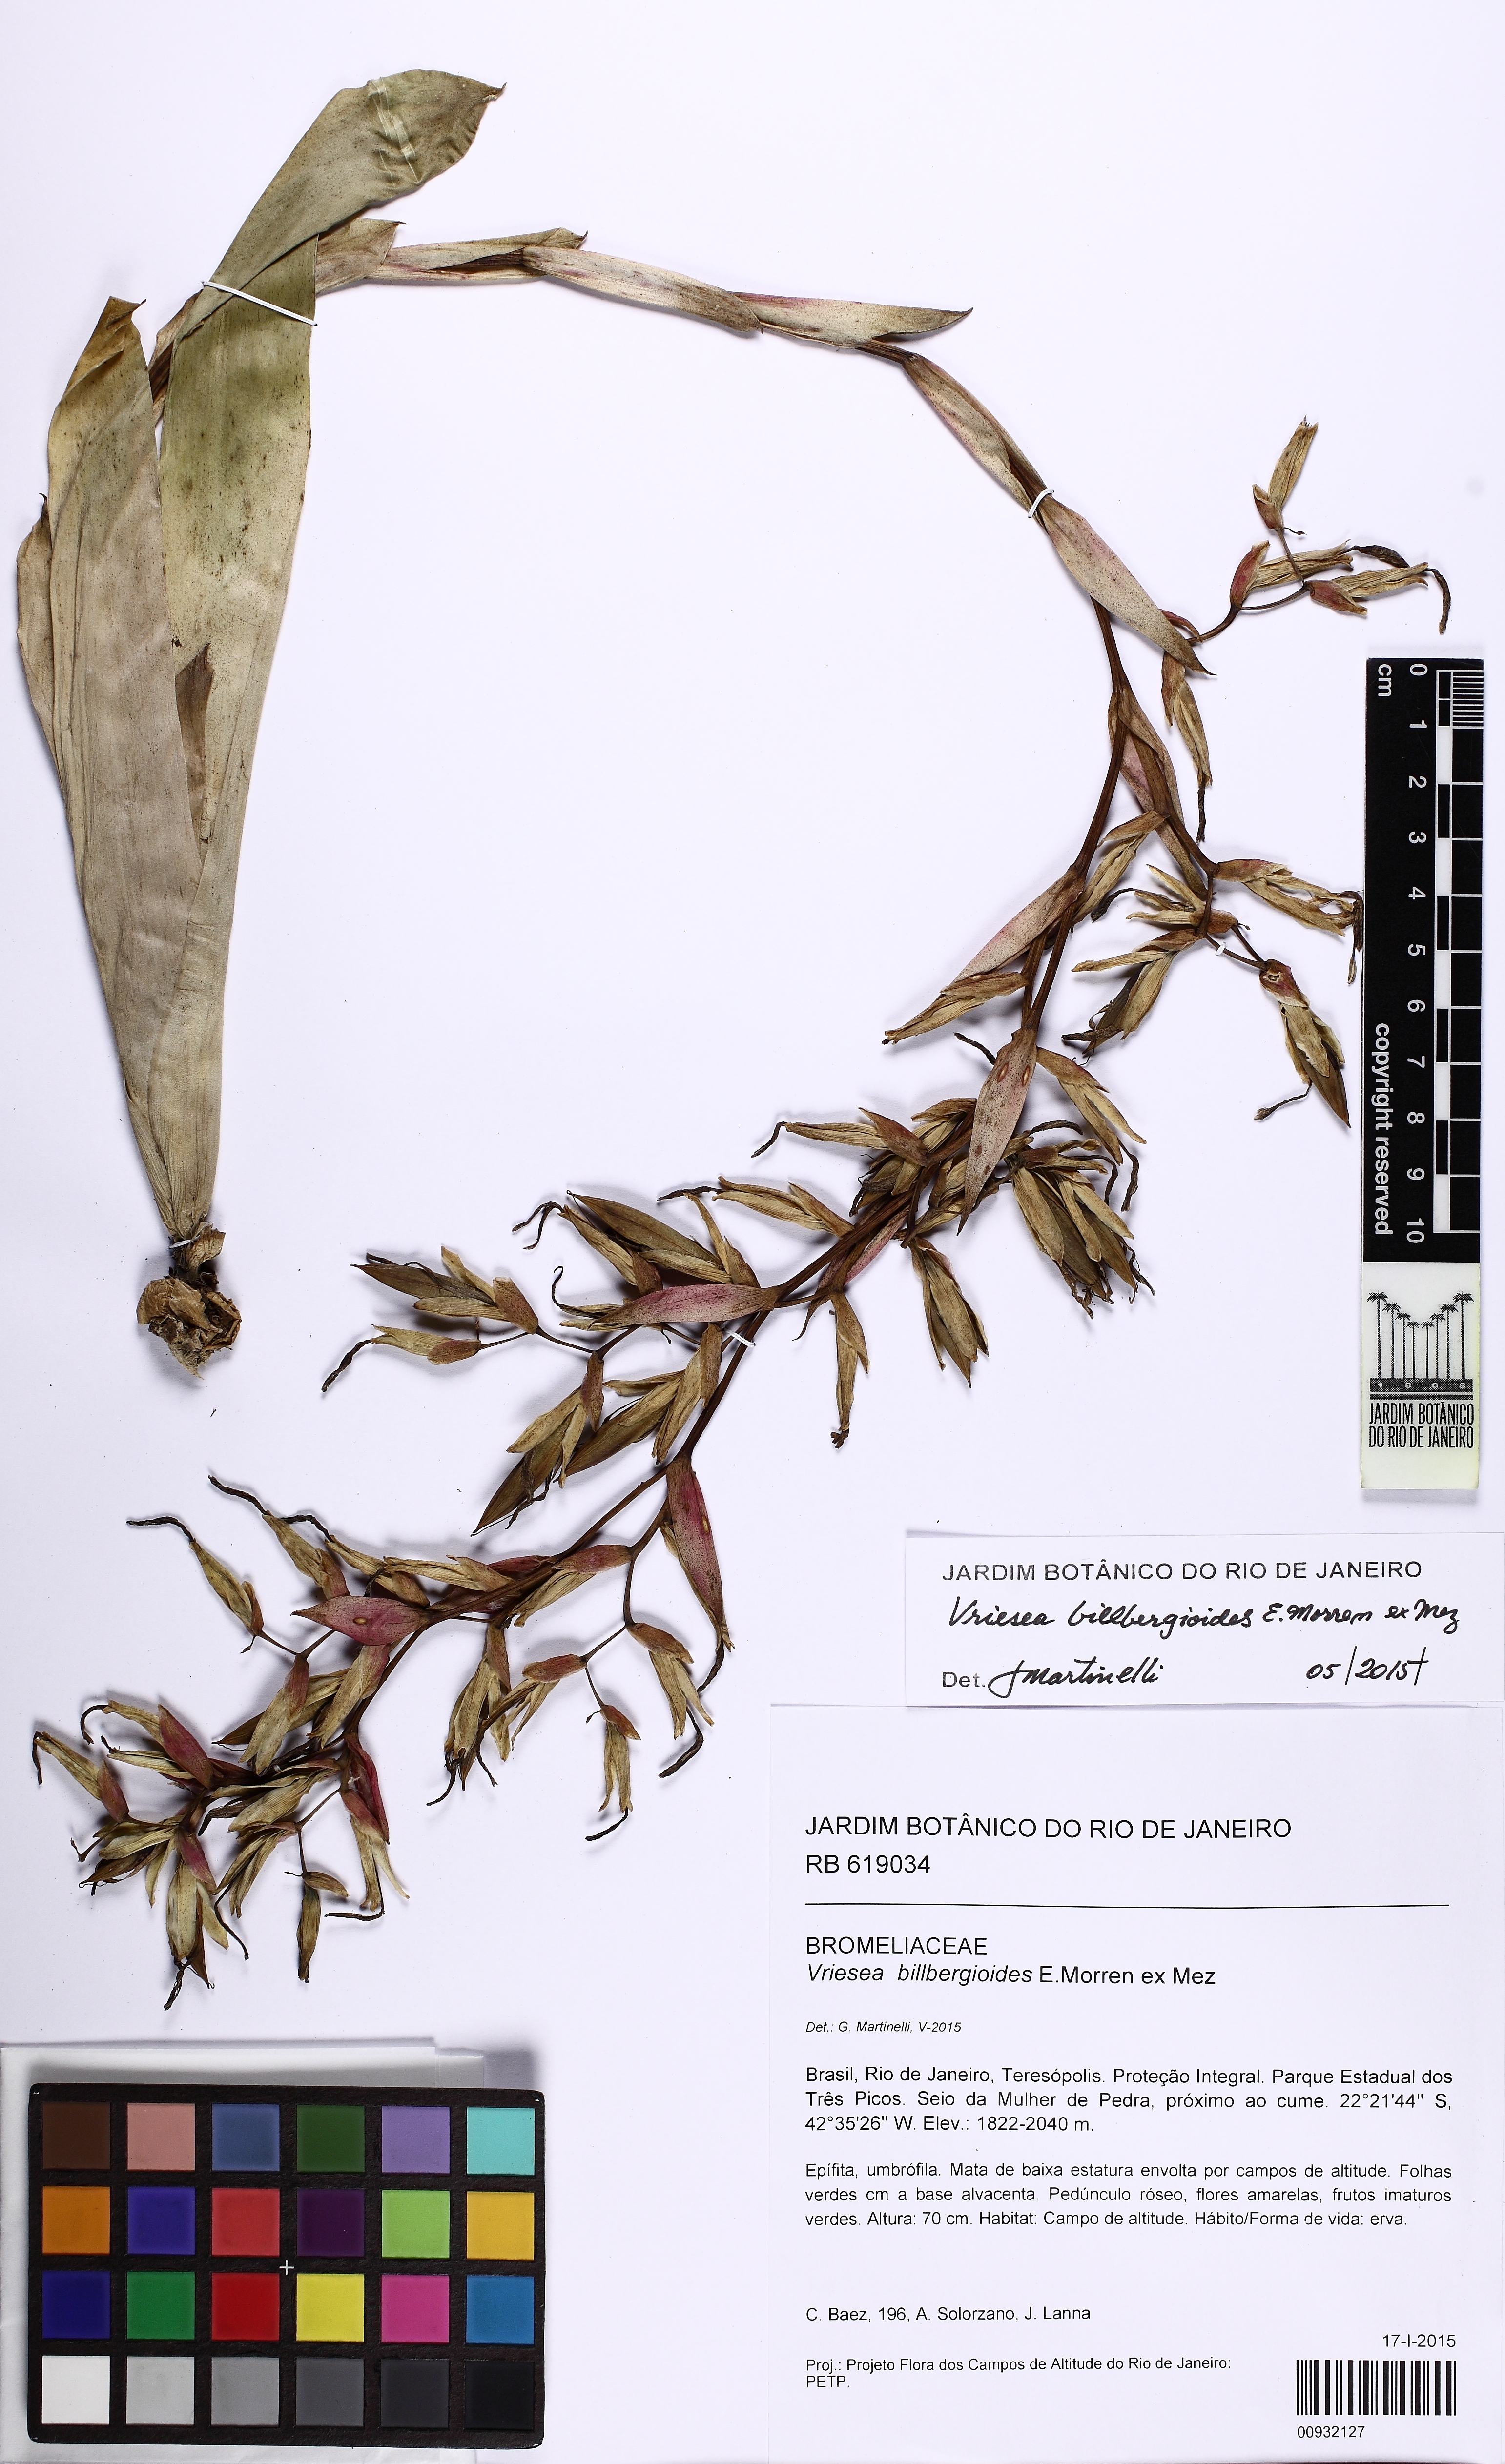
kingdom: Plantae
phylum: Tracheophyta
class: Liliopsida
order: Poales
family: Bromeliaceae
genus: Vriesea
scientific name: Vriesea billbergioides
